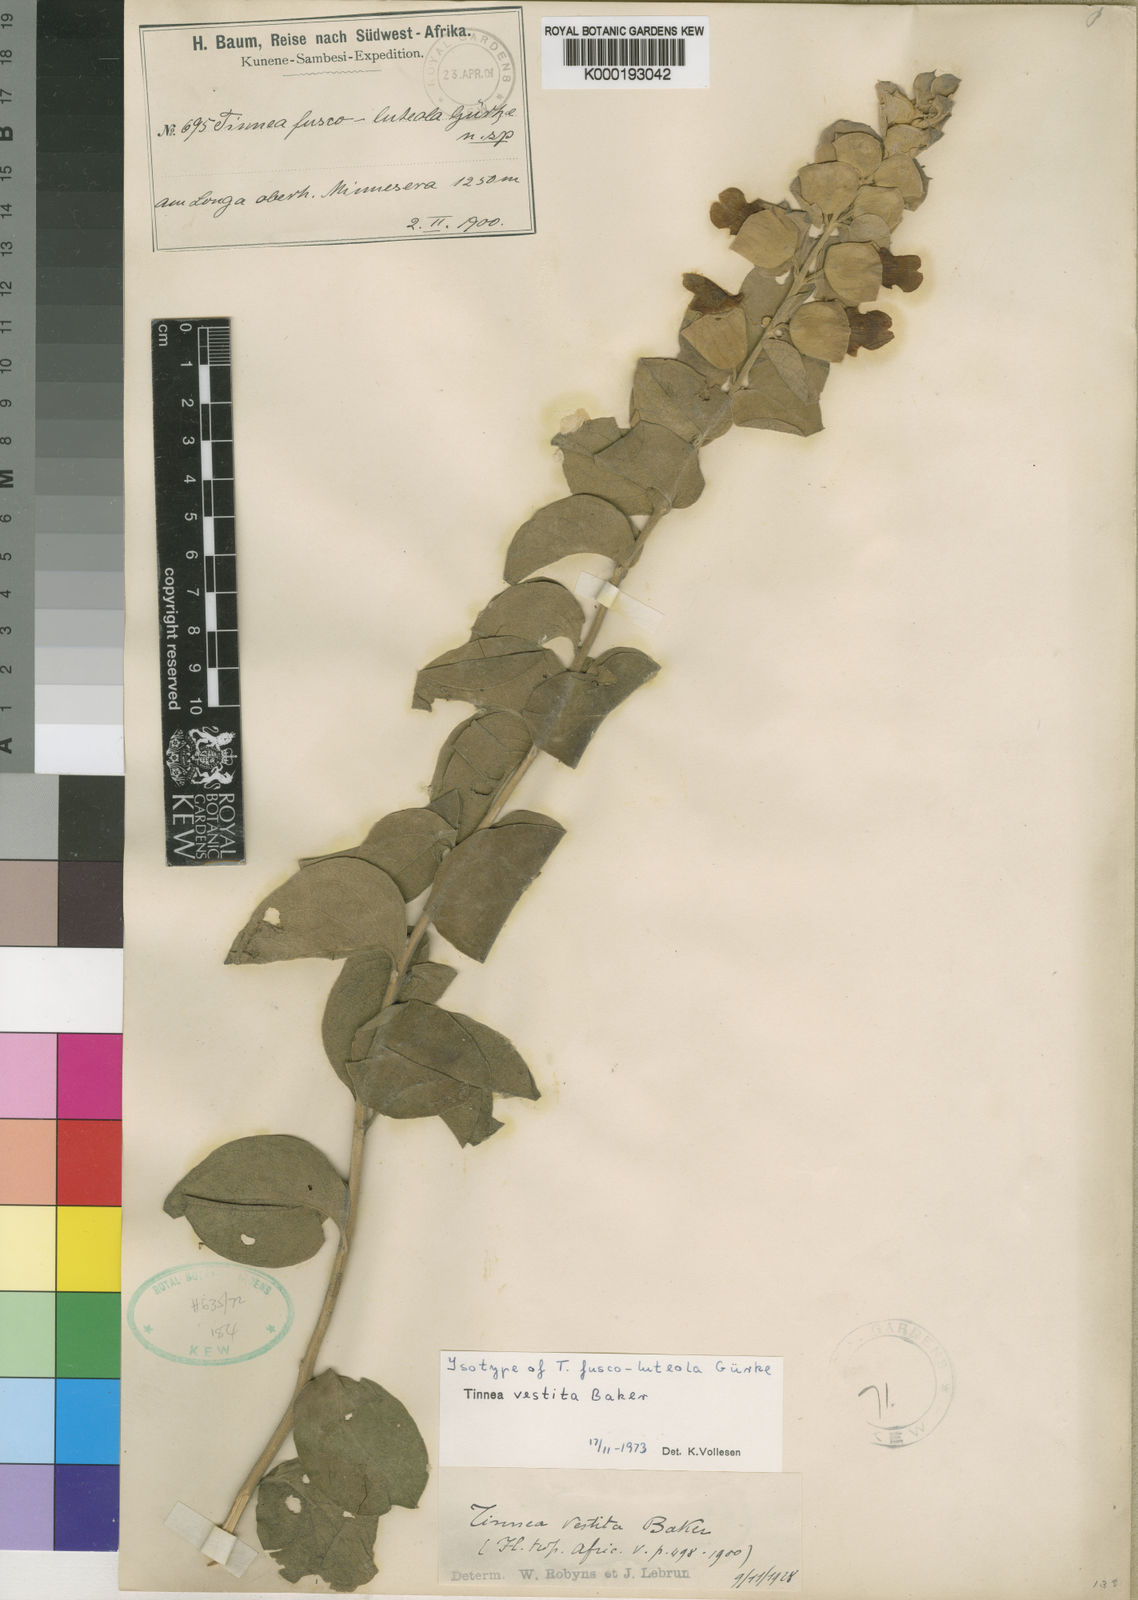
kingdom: Plantae
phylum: Tracheophyta
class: Magnoliopsida
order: Lamiales
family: Lamiaceae
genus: Tinnea
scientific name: Tinnea
